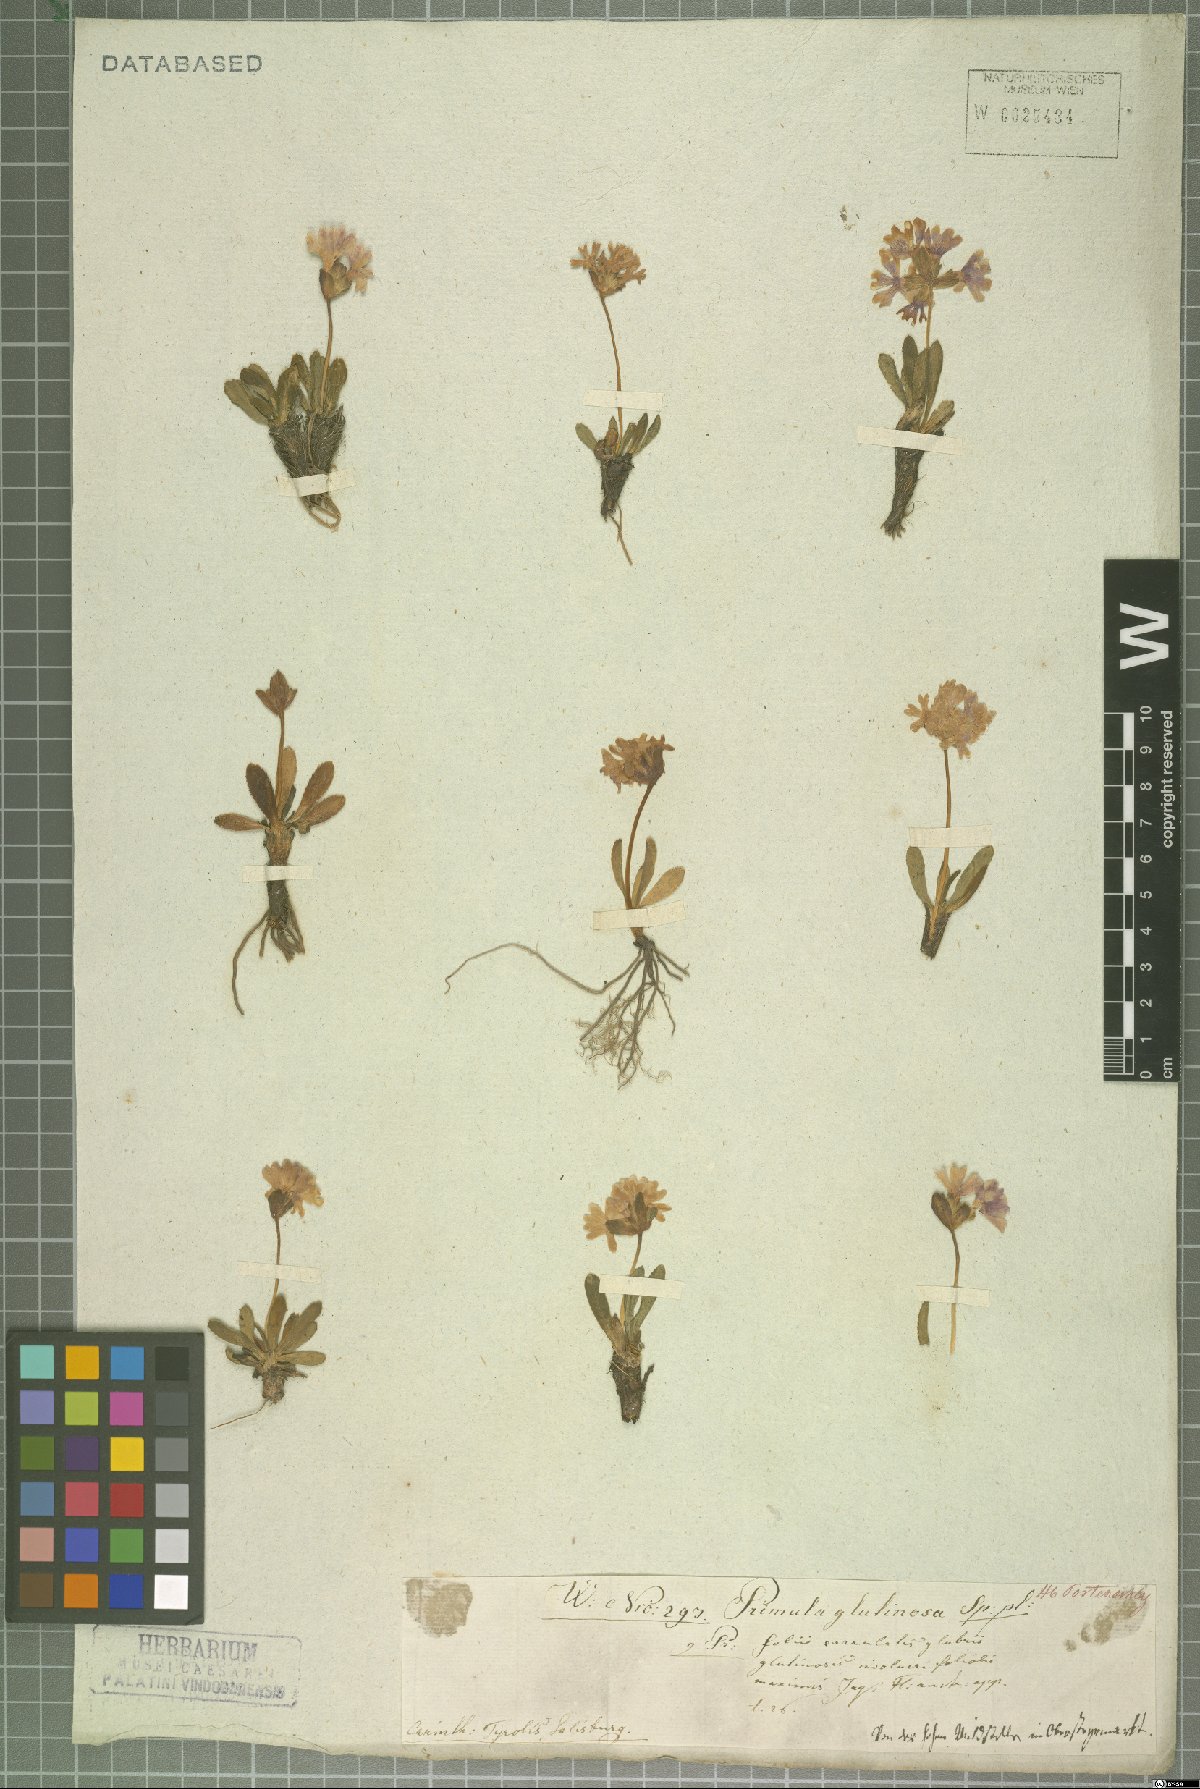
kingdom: Plantae
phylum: Tracheophyta
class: Magnoliopsida
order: Ericales
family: Primulaceae
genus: Primula
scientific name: Primula glutinosa
